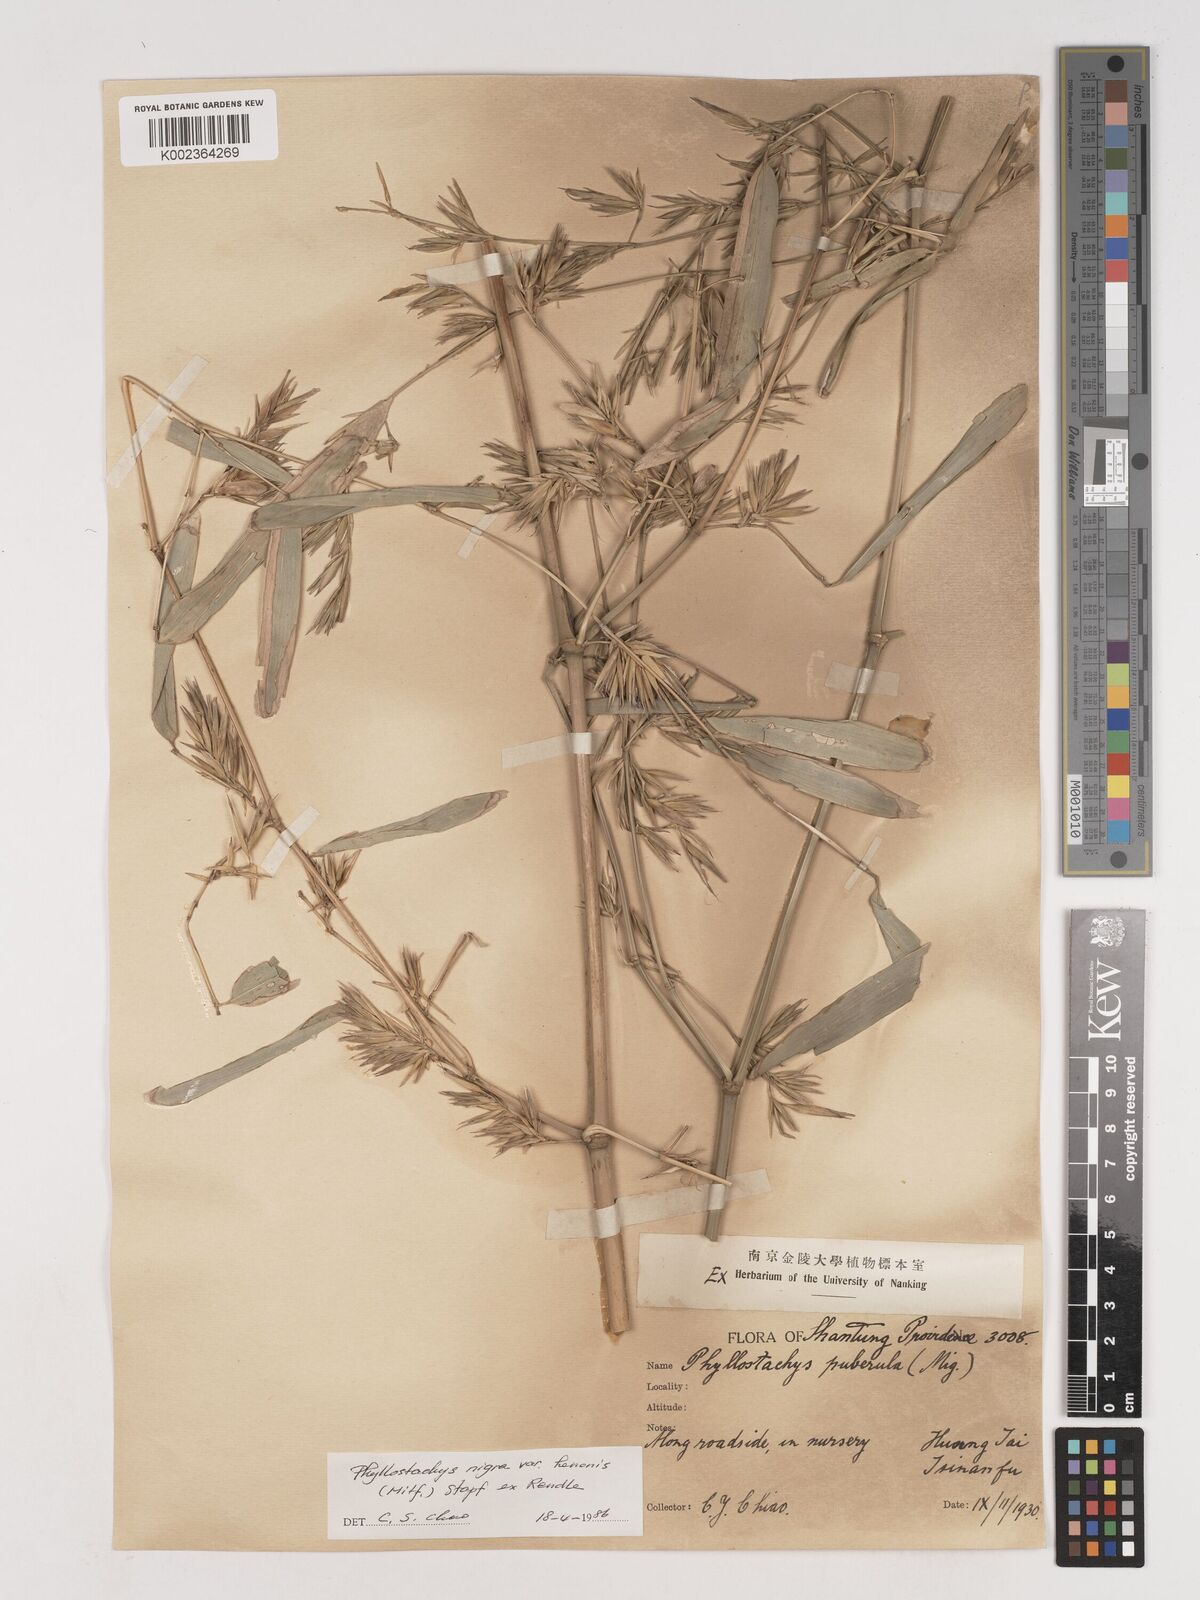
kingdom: Plantae
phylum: Tracheophyta
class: Liliopsida
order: Poales
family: Poaceae
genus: Phyllostachys
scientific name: Phyllostachys nigra
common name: Black bamboo
